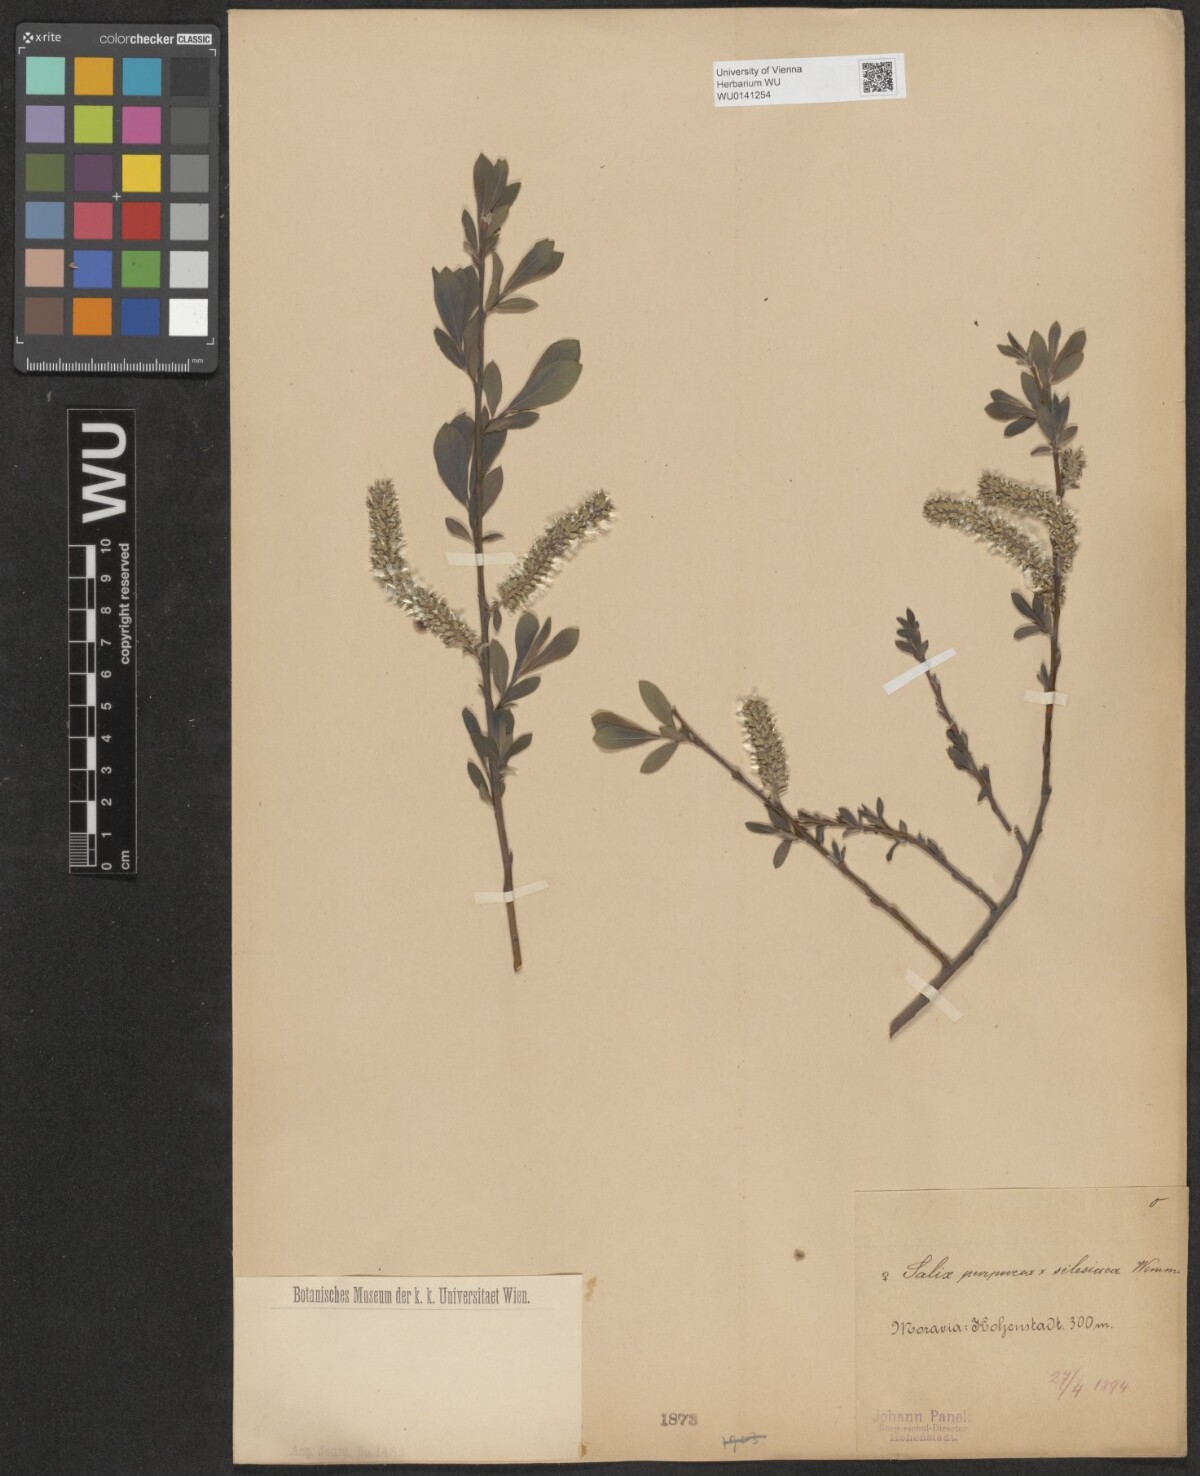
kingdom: Plantae
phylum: Tracheophyta
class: Magnoliopsida
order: Malpighiales
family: Salicaceae
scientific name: Salicaceae
